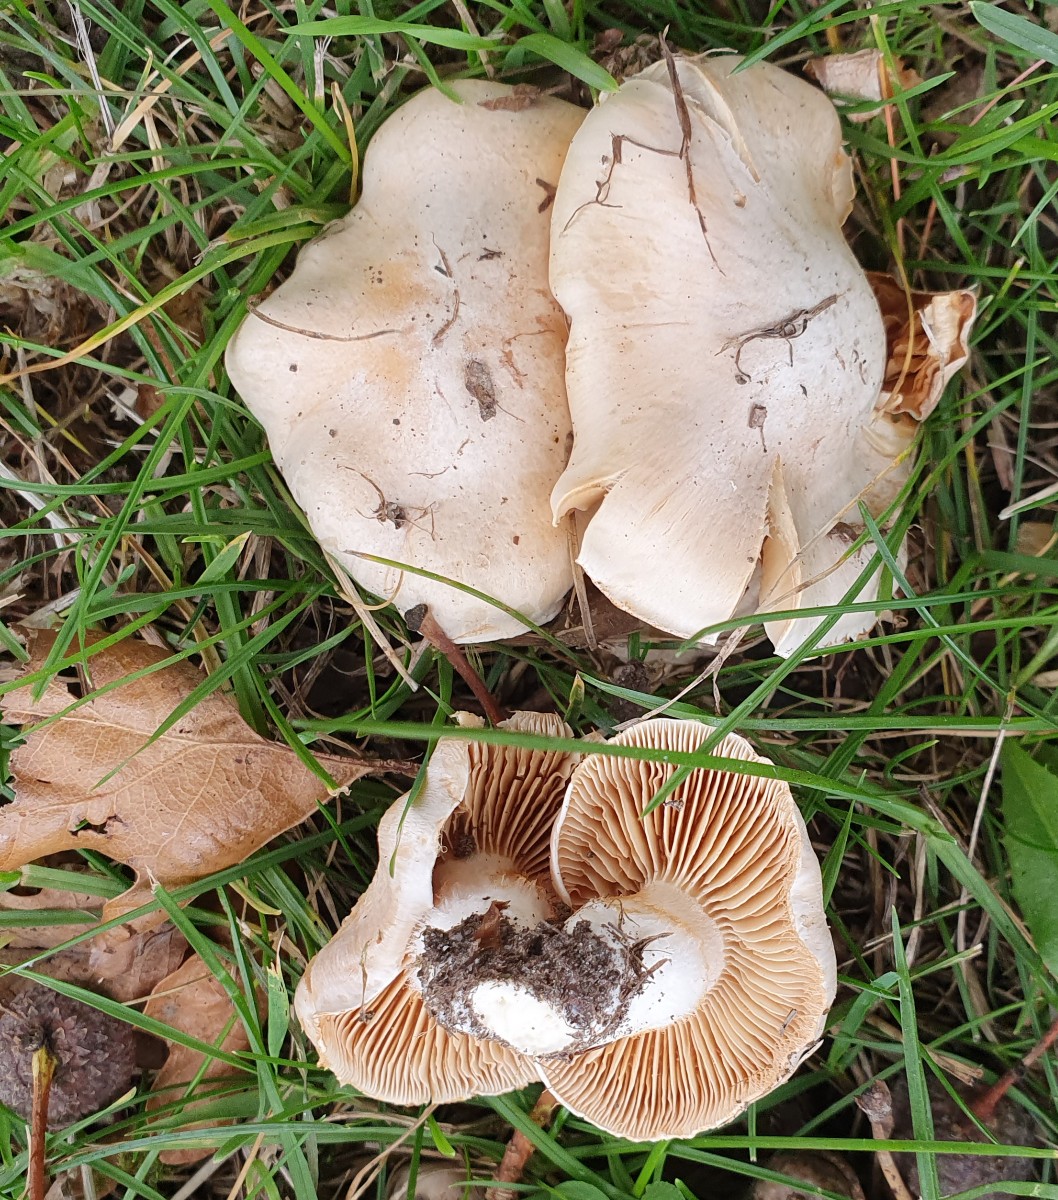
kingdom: Fungi
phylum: Basidiomycota
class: Agaricomycetes
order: Agaricales
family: Cortinariaceae
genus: Thaxterogaster
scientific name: Thaxterogaster barbatus
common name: elfenbens-slørhat
